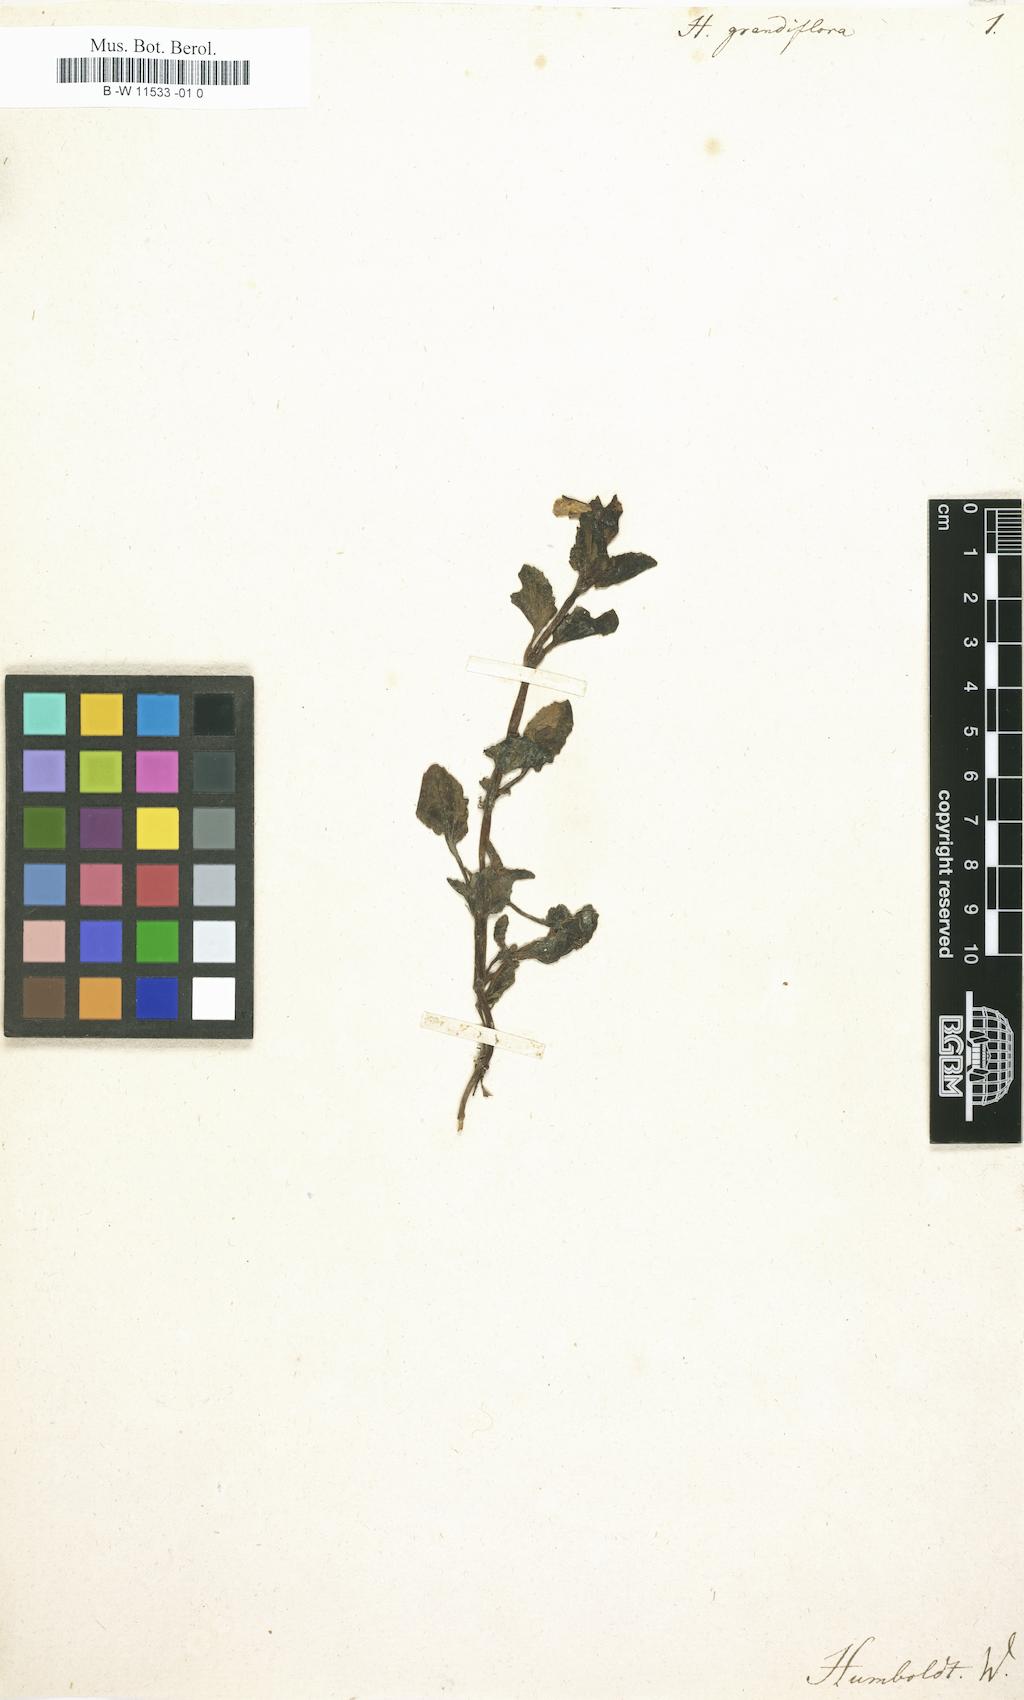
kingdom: Plantae
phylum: Tracheophyta
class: Magnoliopsida
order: Lamiales
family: Plantaginaceae
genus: Mecardonia
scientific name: Mecardonia grandiflora
